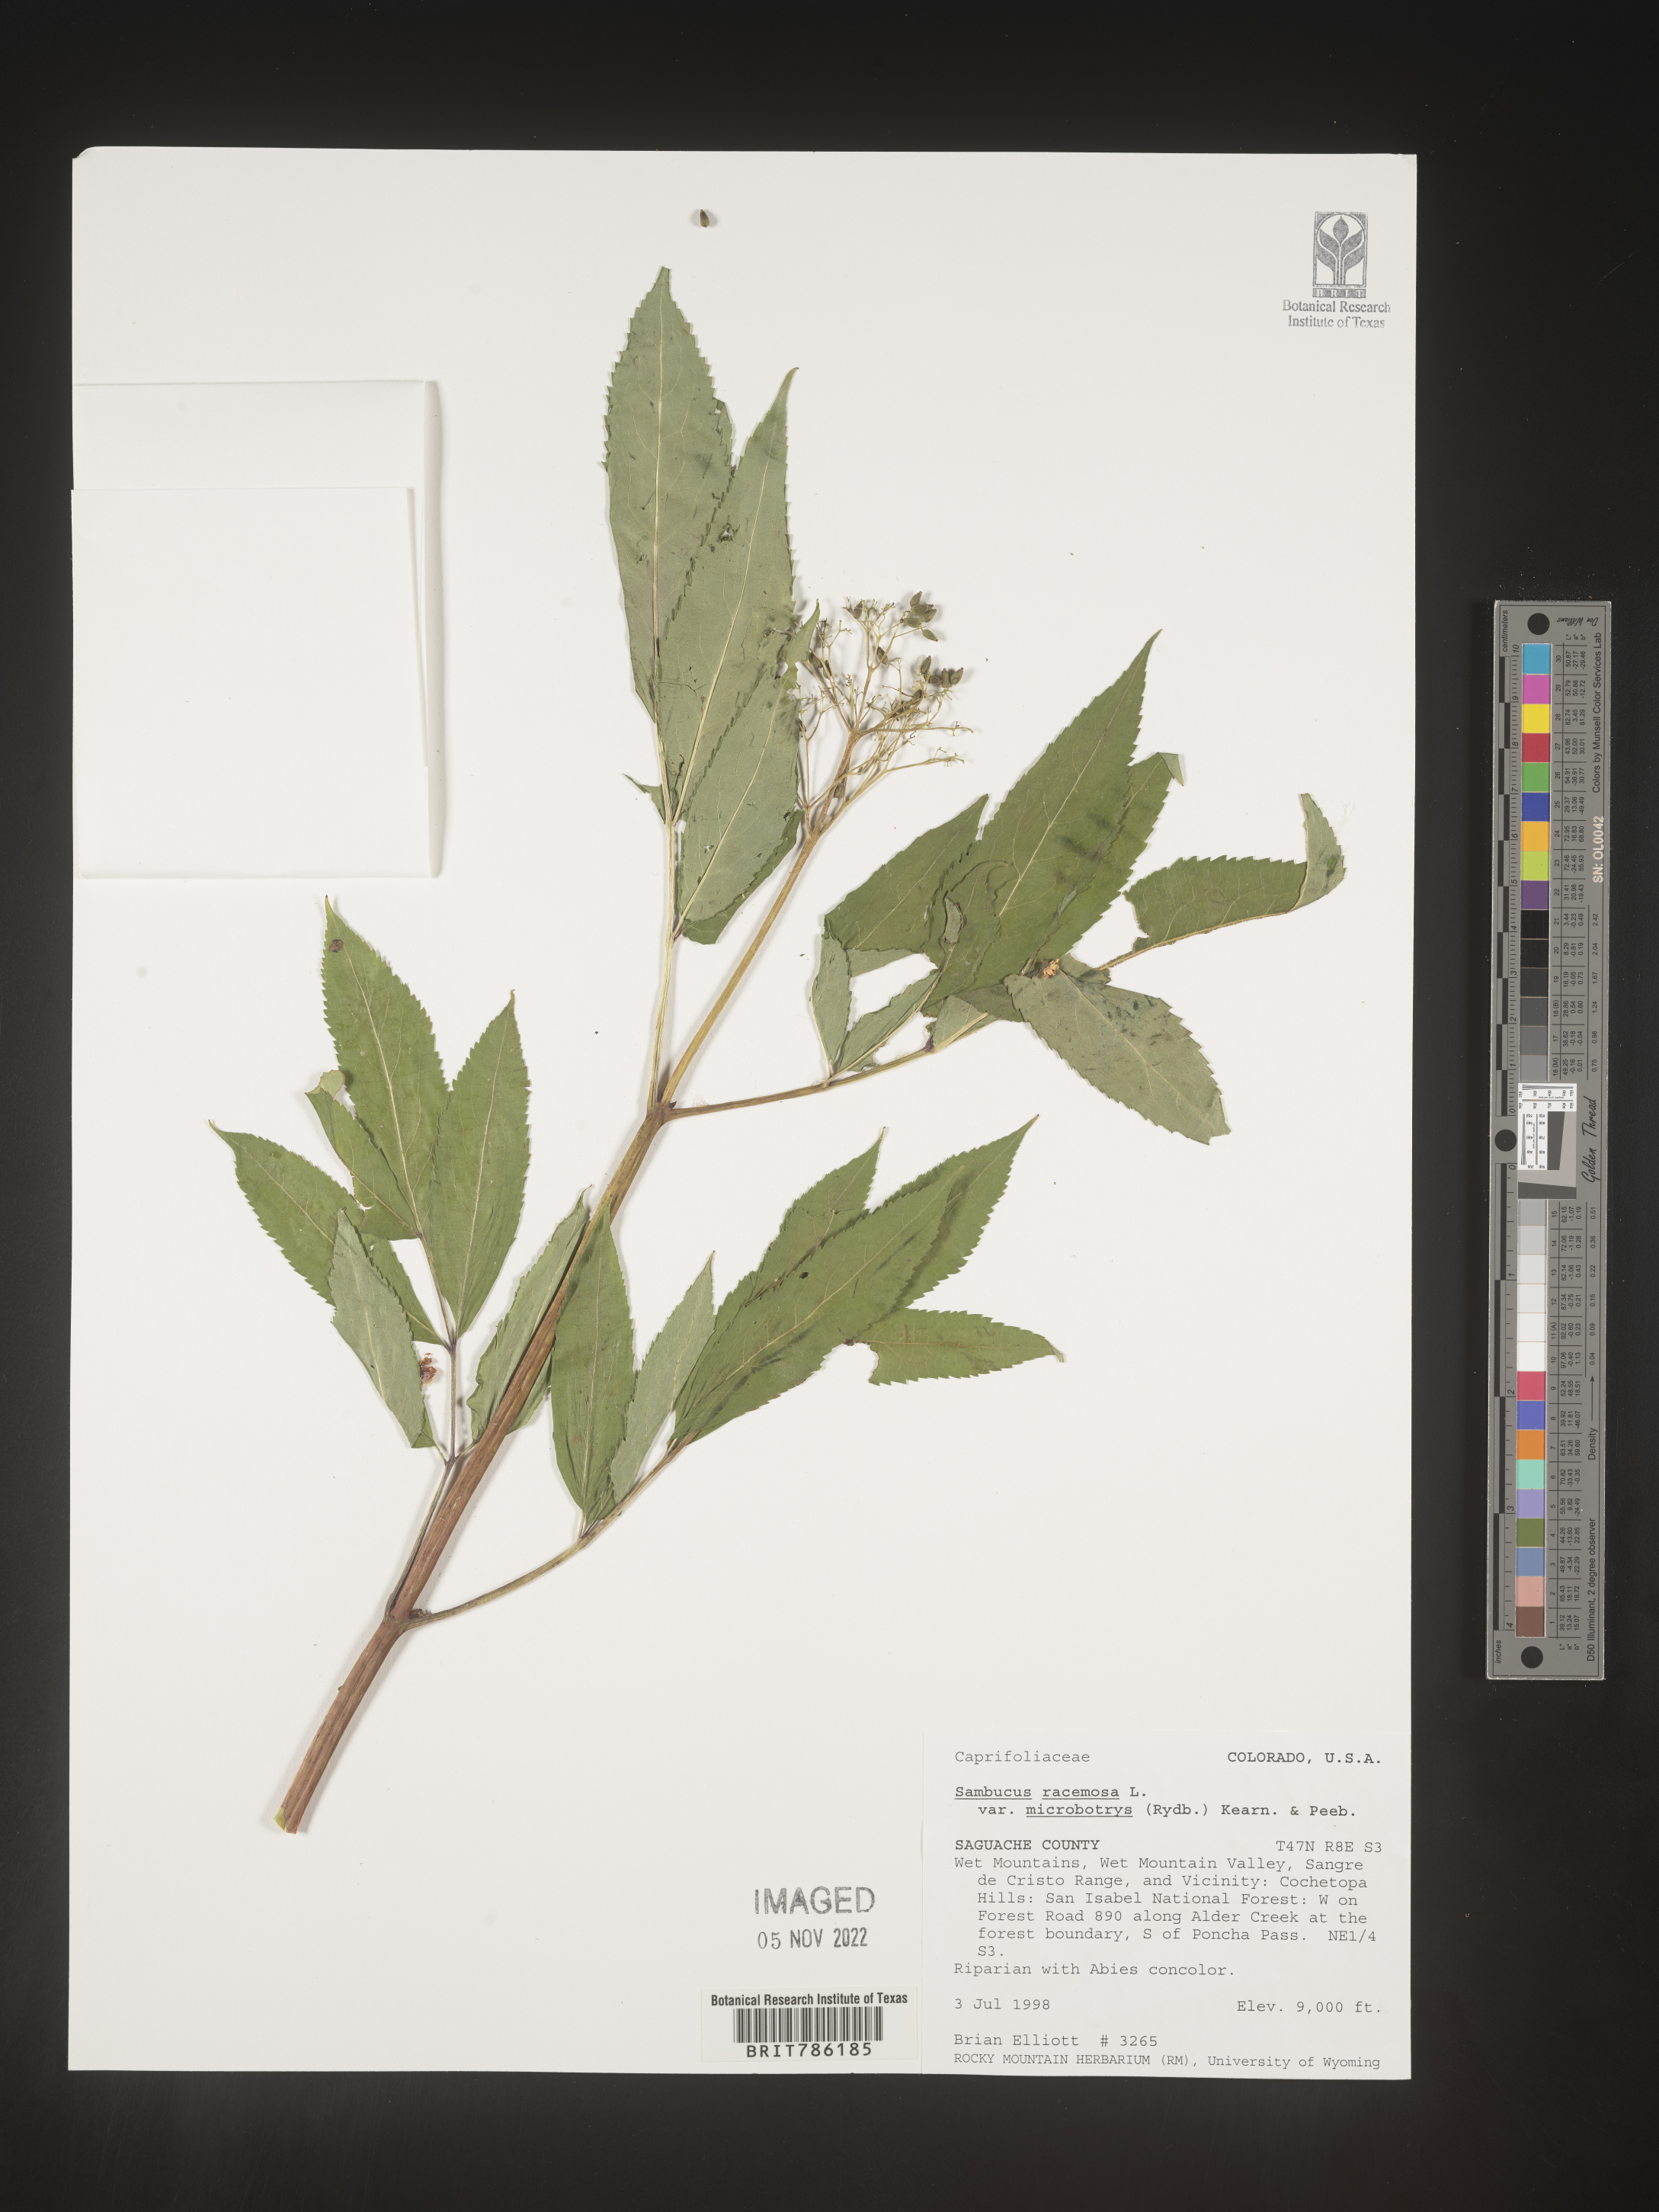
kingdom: Plantae
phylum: Tracheophyta
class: Magnoliopsida
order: Dipsacales
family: Viburnaceae
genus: Sambucus
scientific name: Sambucus
